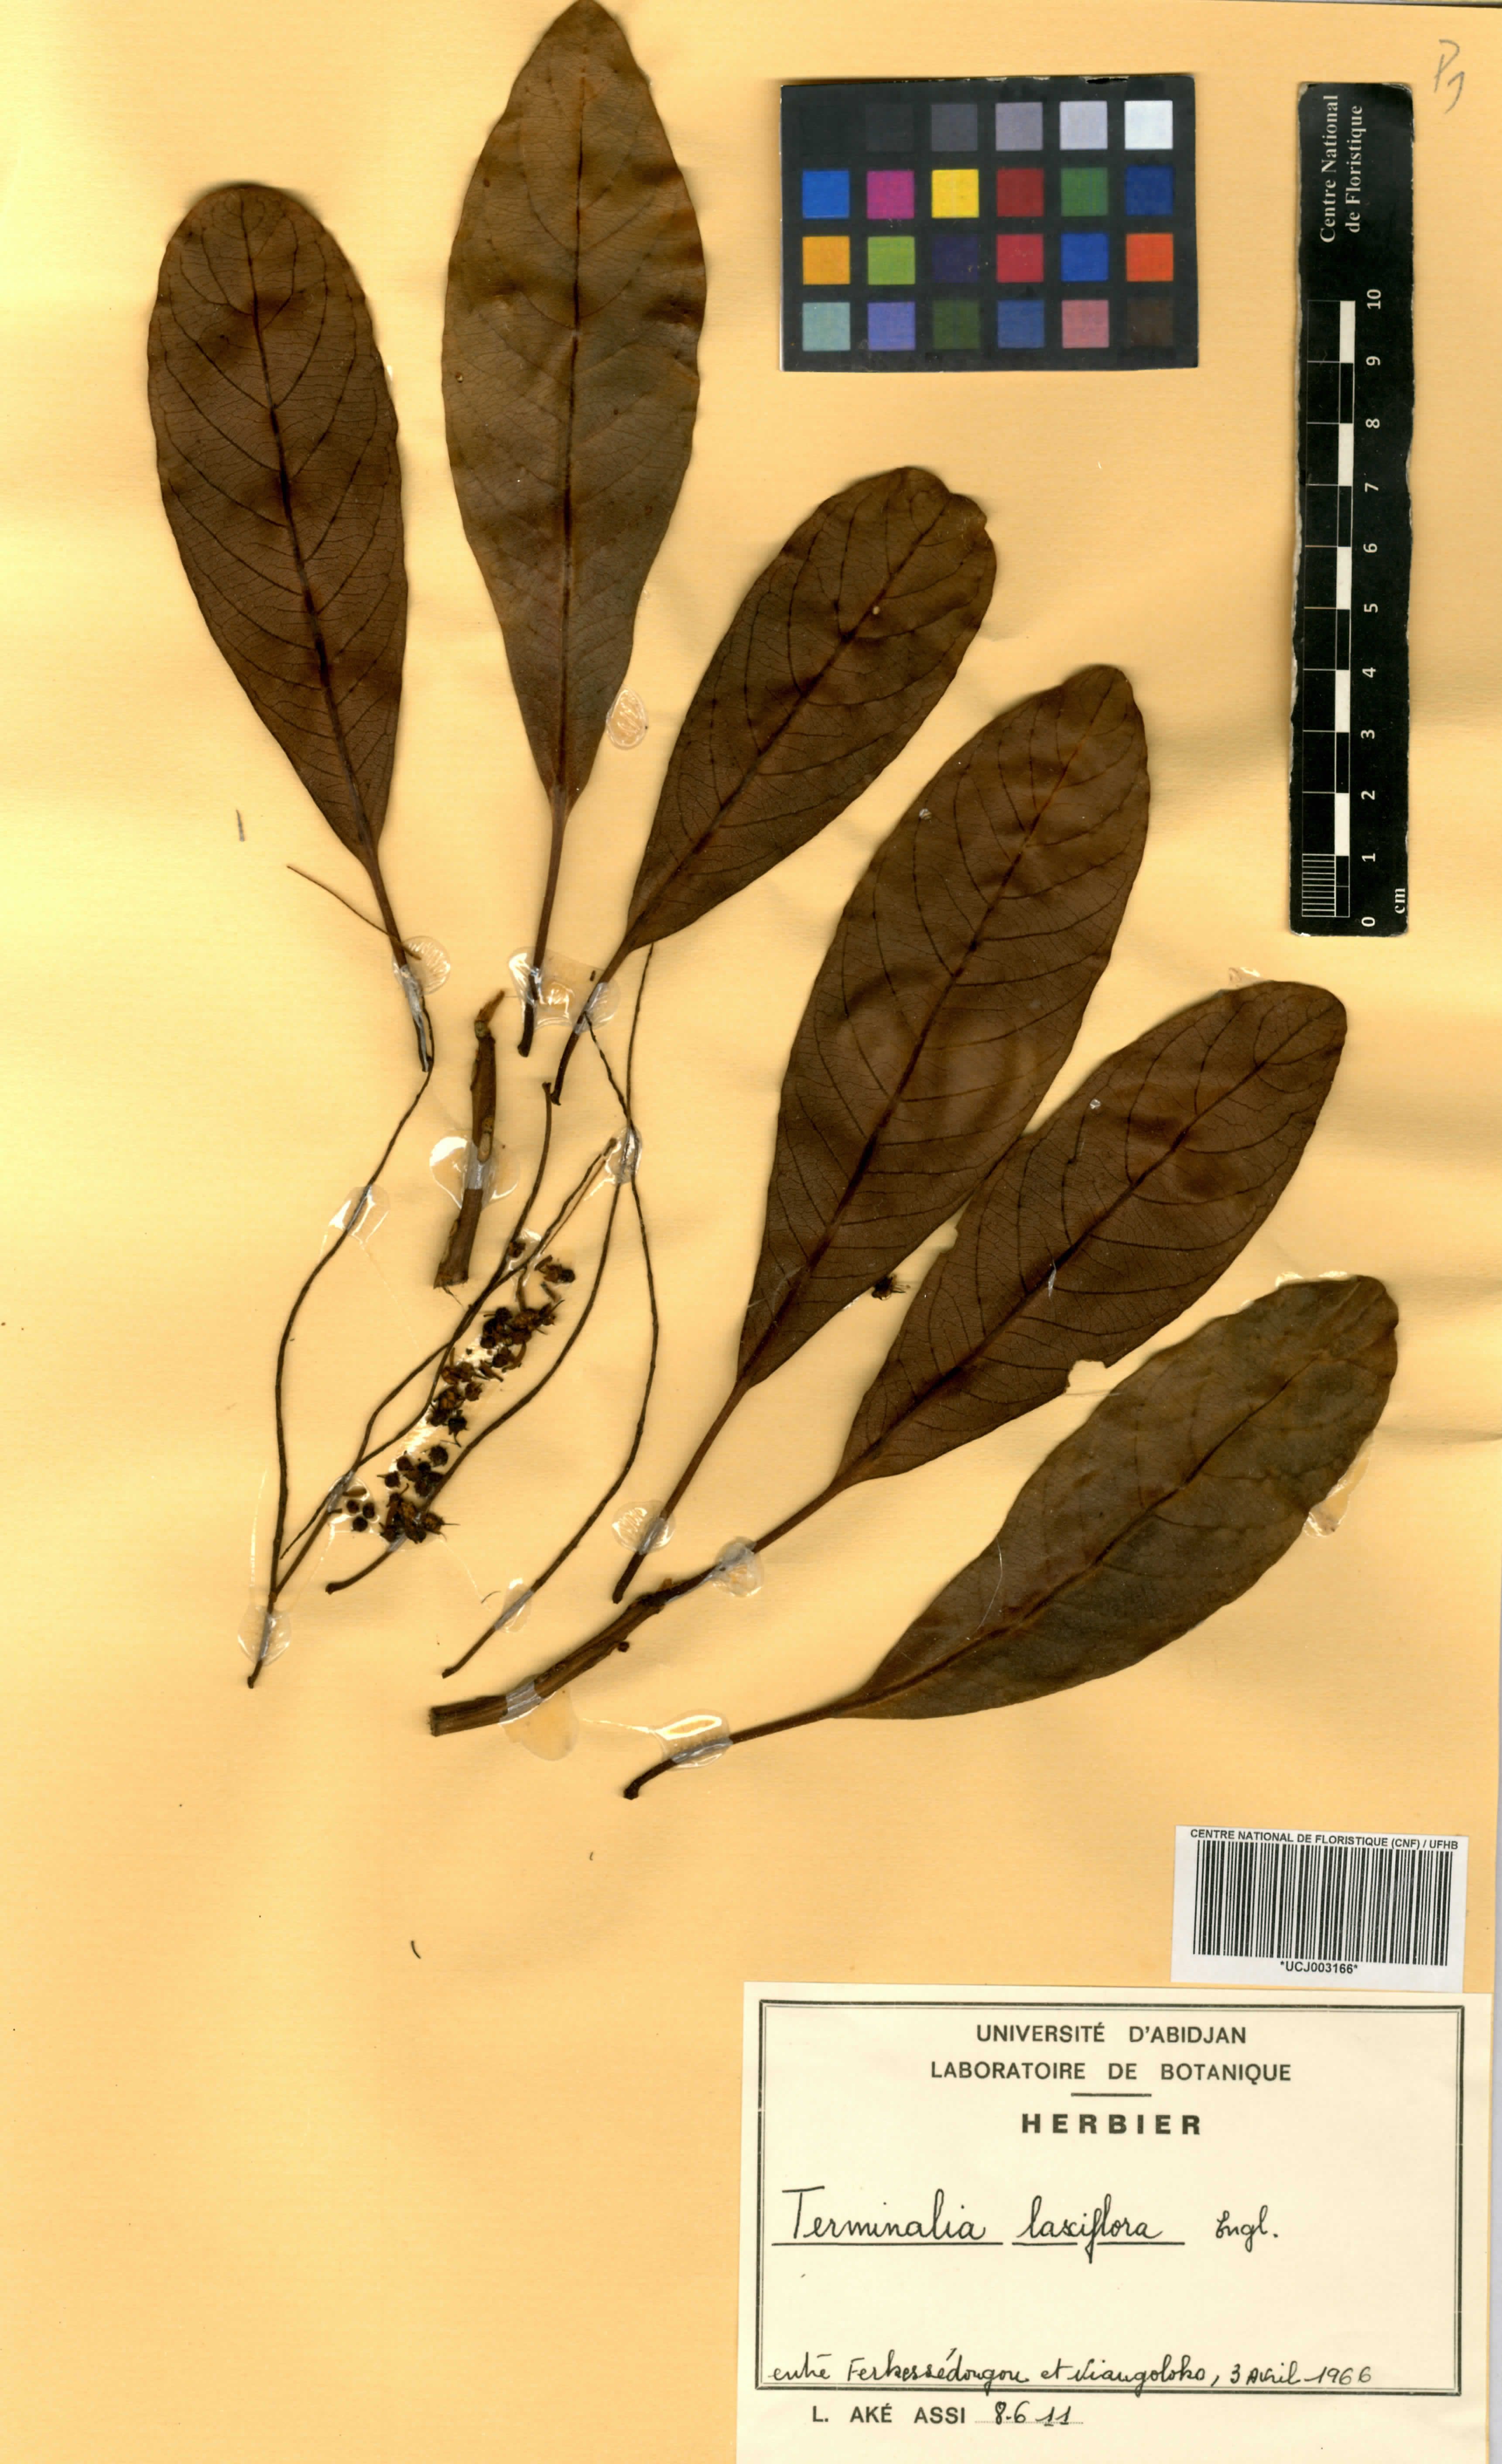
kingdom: Plantae
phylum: Tracheophyta
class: Magnoliopsida
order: Myrtales
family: Combretaceae
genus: Terminalia
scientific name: Terminalia laxiflora
